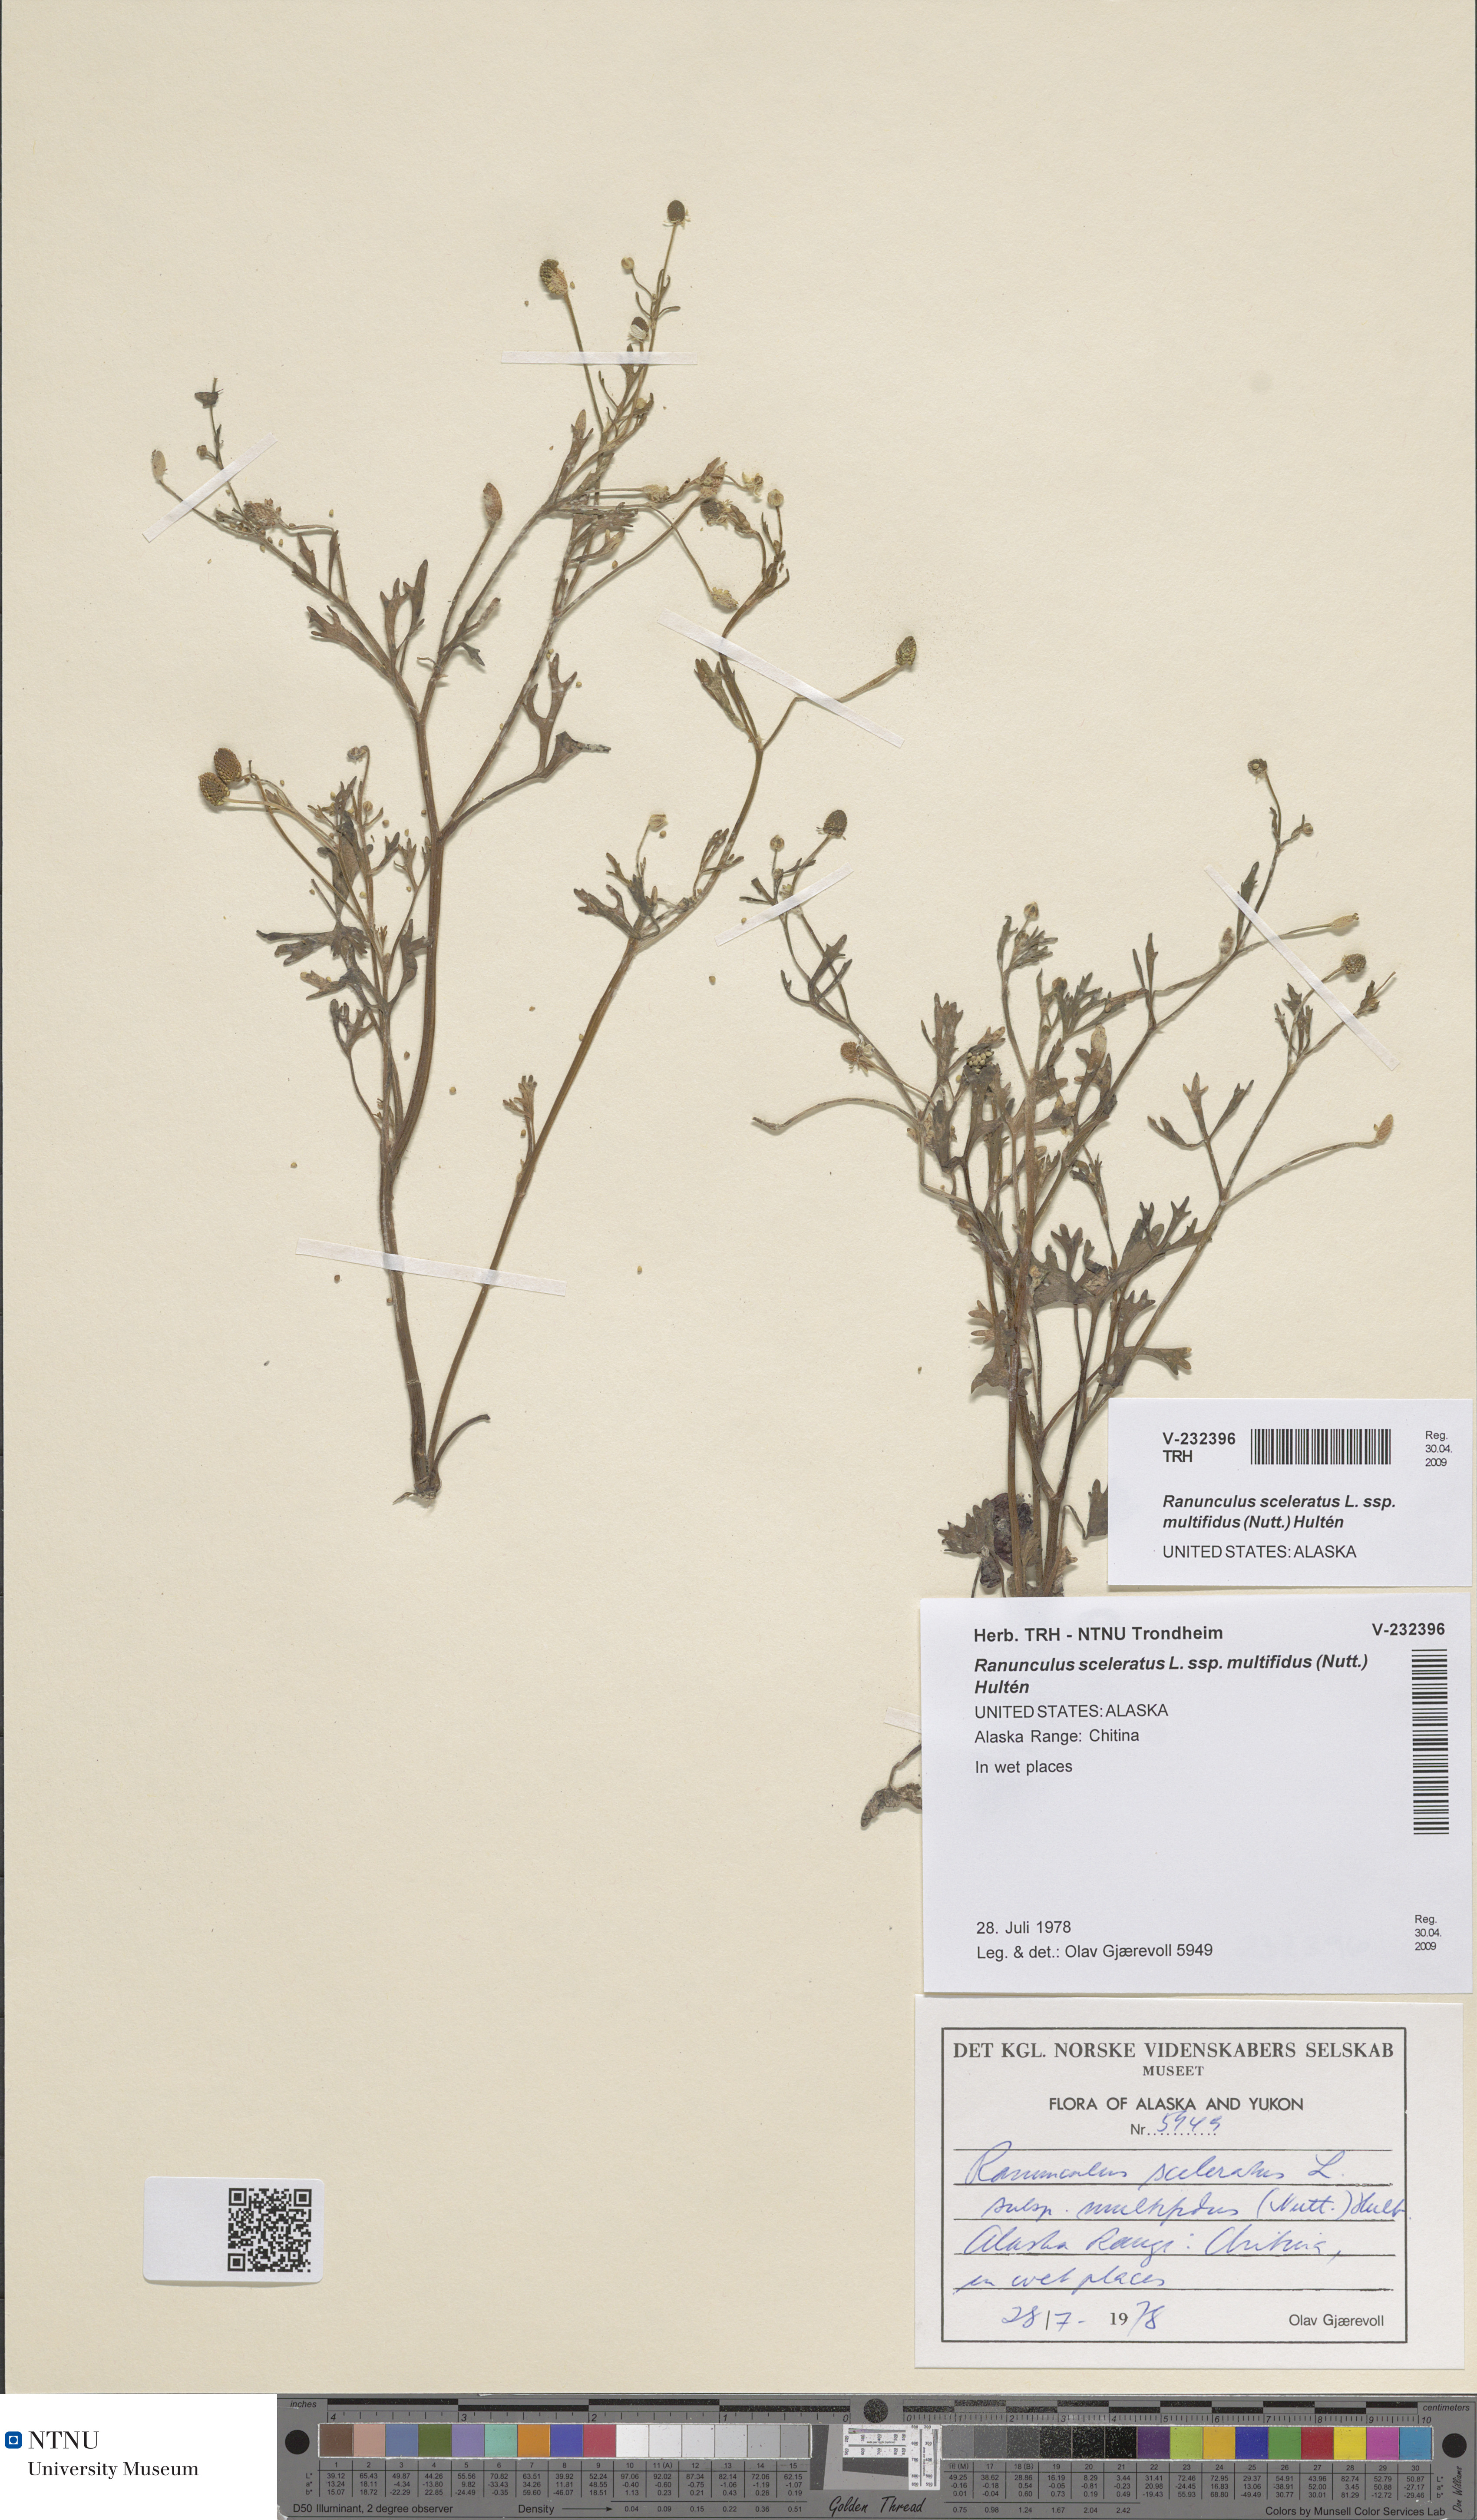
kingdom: Plantae
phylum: Tracheophyta
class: Magnoliopsida
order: Ranunculales
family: Ranunculaceae
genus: Ranunculus
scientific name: Ranunculus sceleratus
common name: Celery-leaved buttercup
